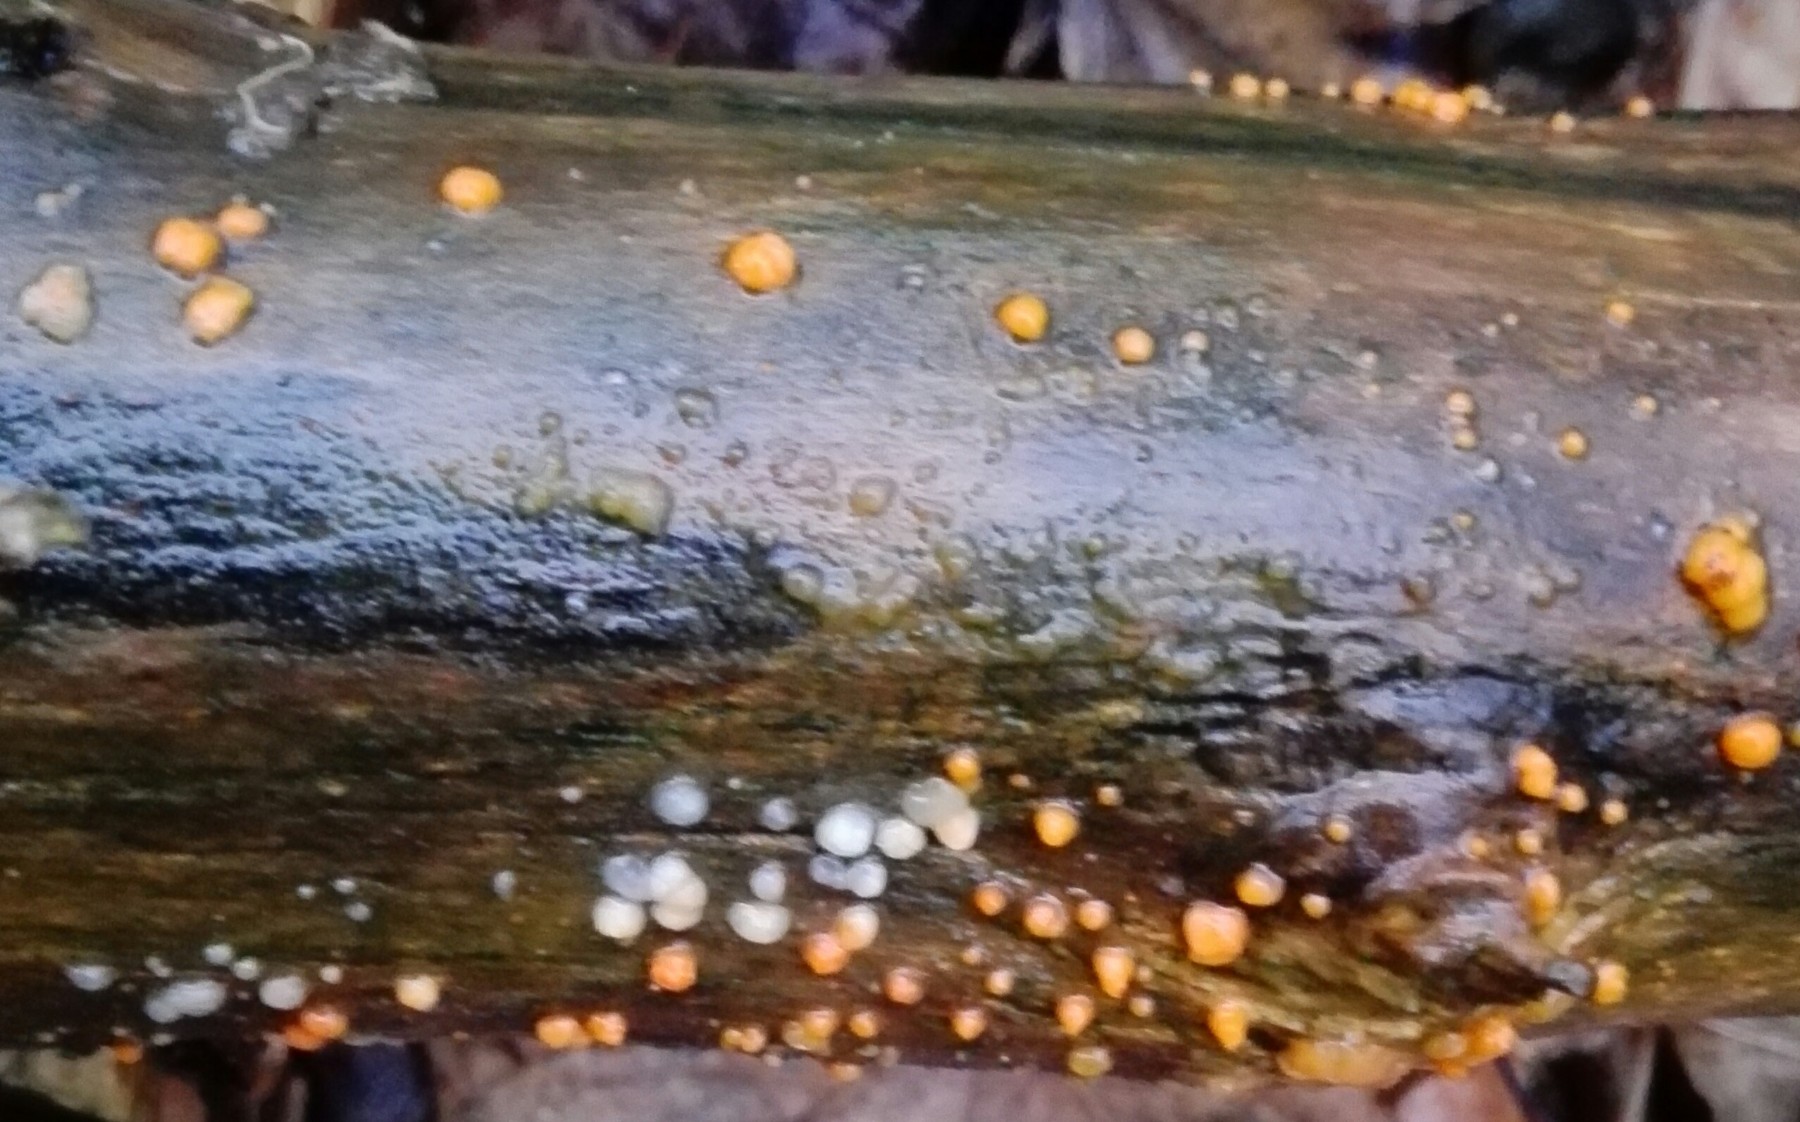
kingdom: Fungi
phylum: Basidiomycota
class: Dacrymycetes
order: Dacrymycetales
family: Dacrymycetaceae
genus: Dacrymyces
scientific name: Dacrymyces stillatus
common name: almindelig tåresvamp
